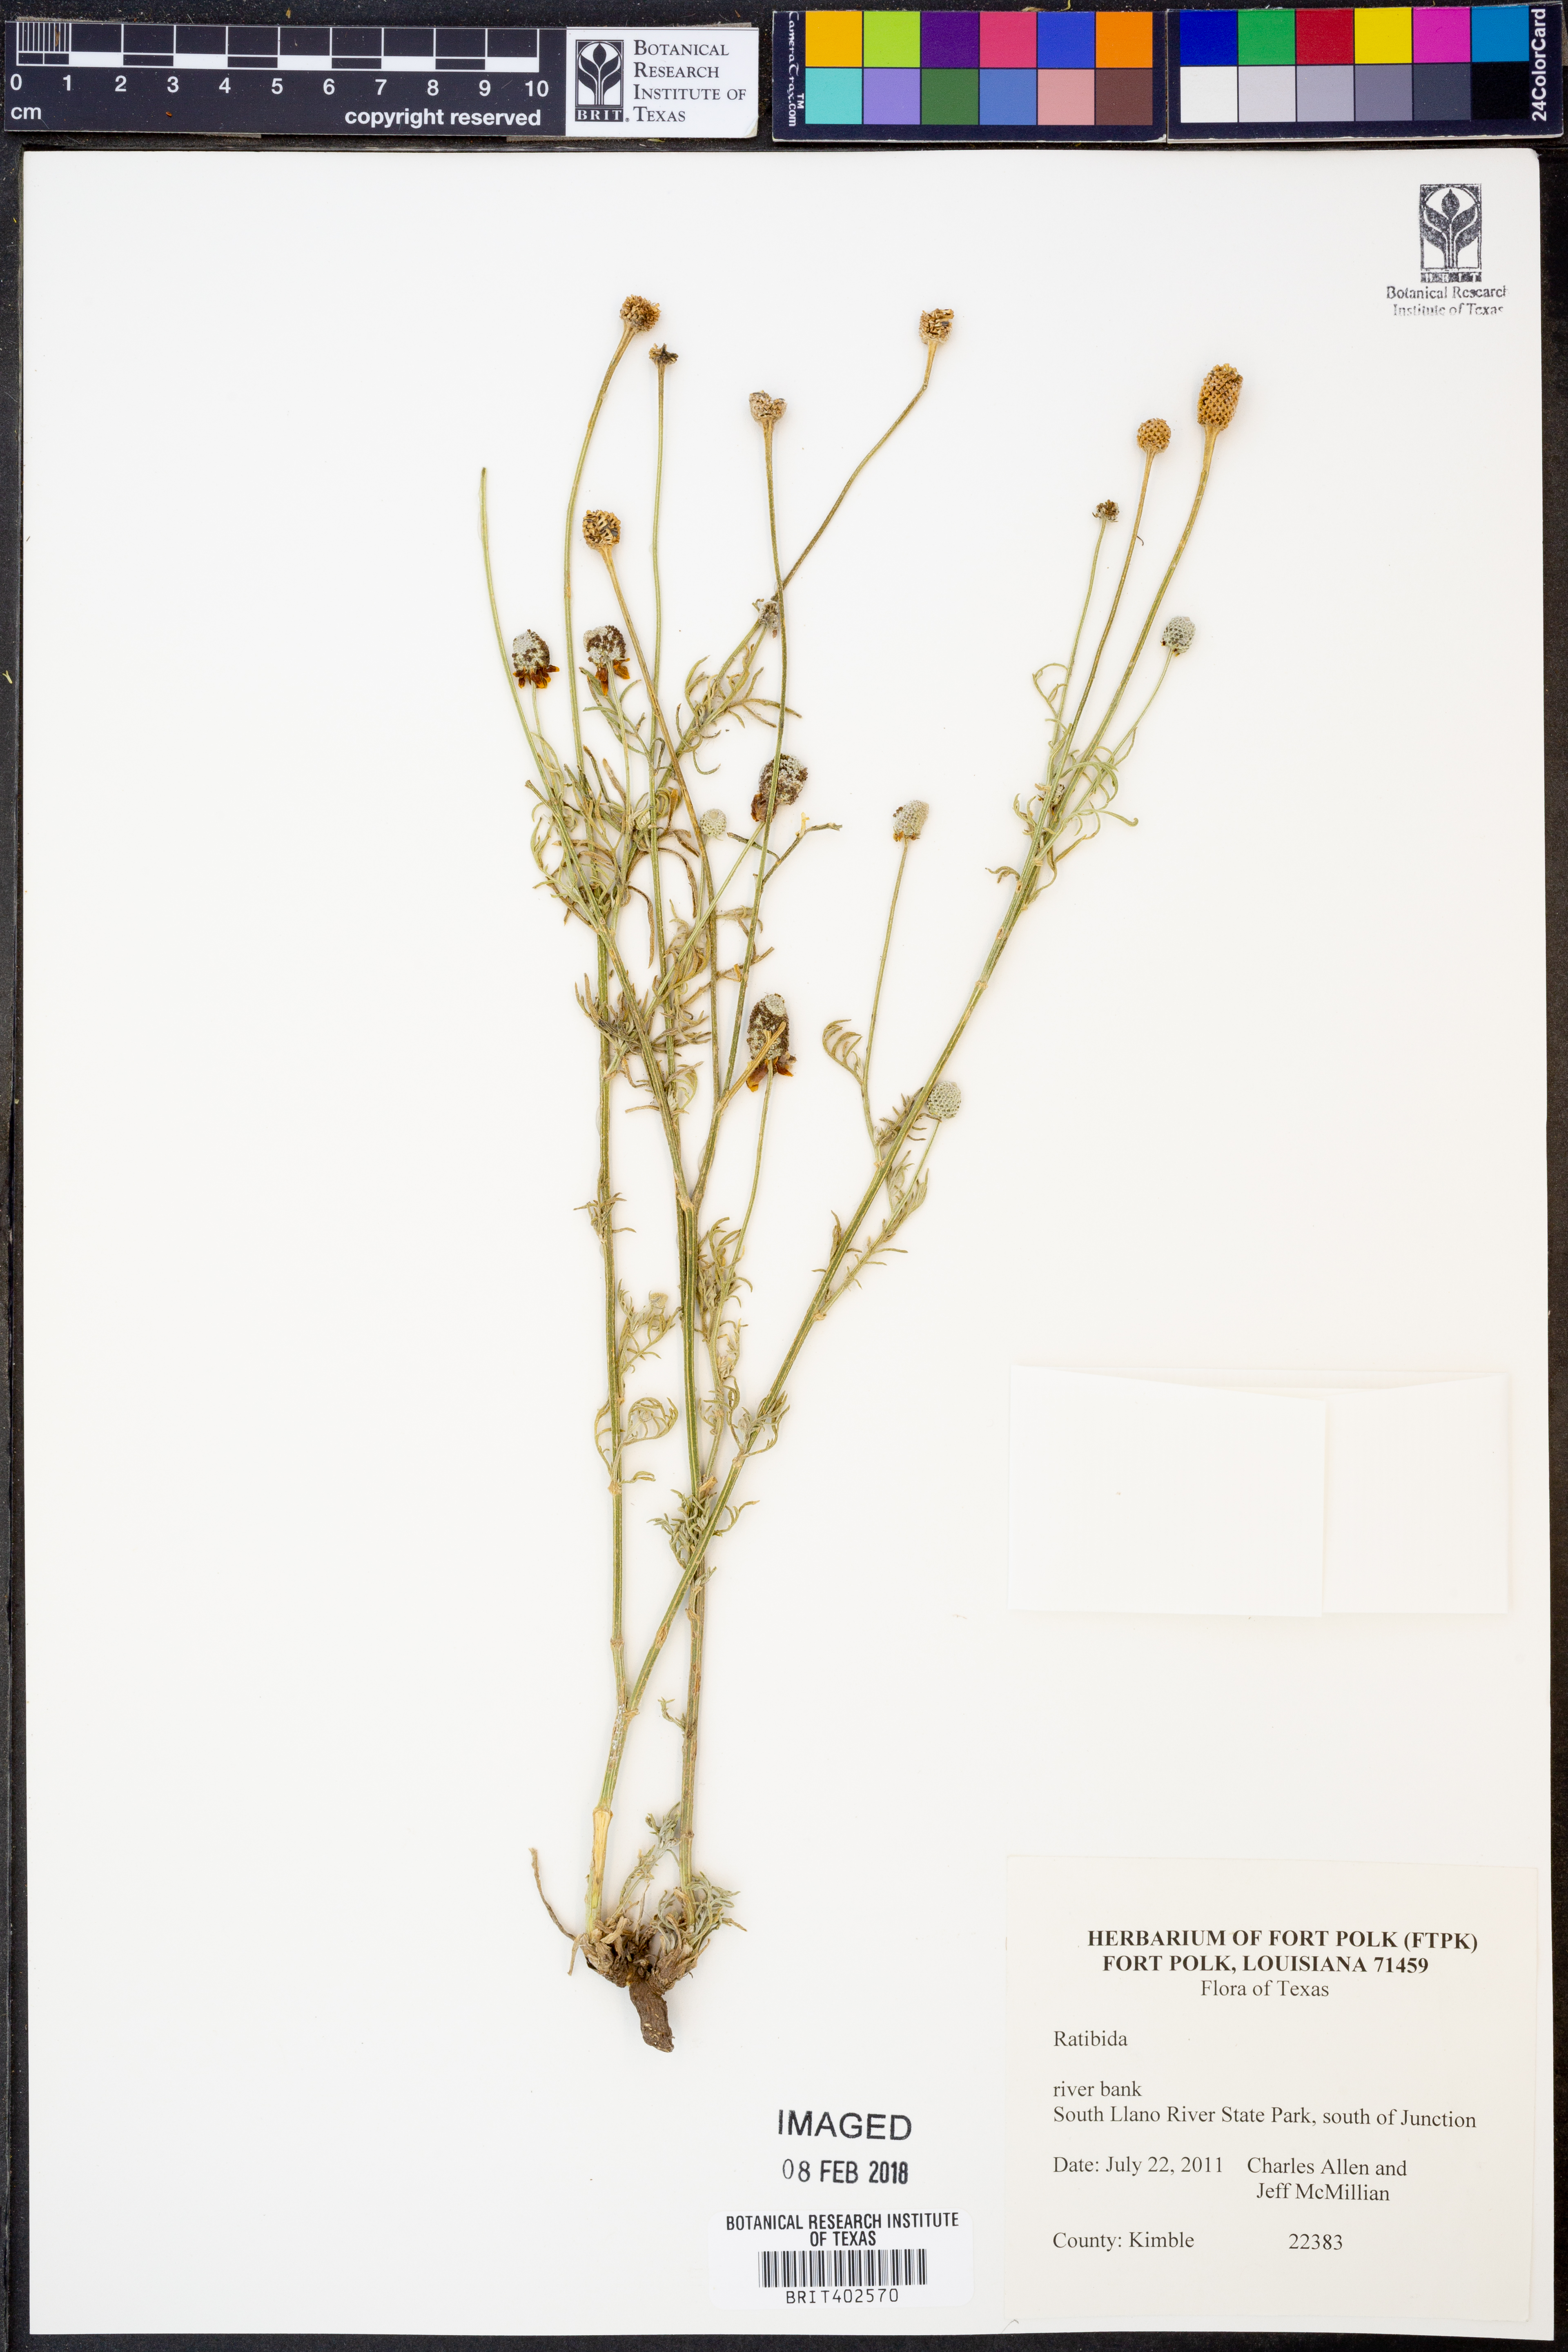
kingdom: Plantae
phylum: Tracheophyta
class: Magnoliopsida
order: Asterales
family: Asteraceae
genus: Ratibida
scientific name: Ratibida
